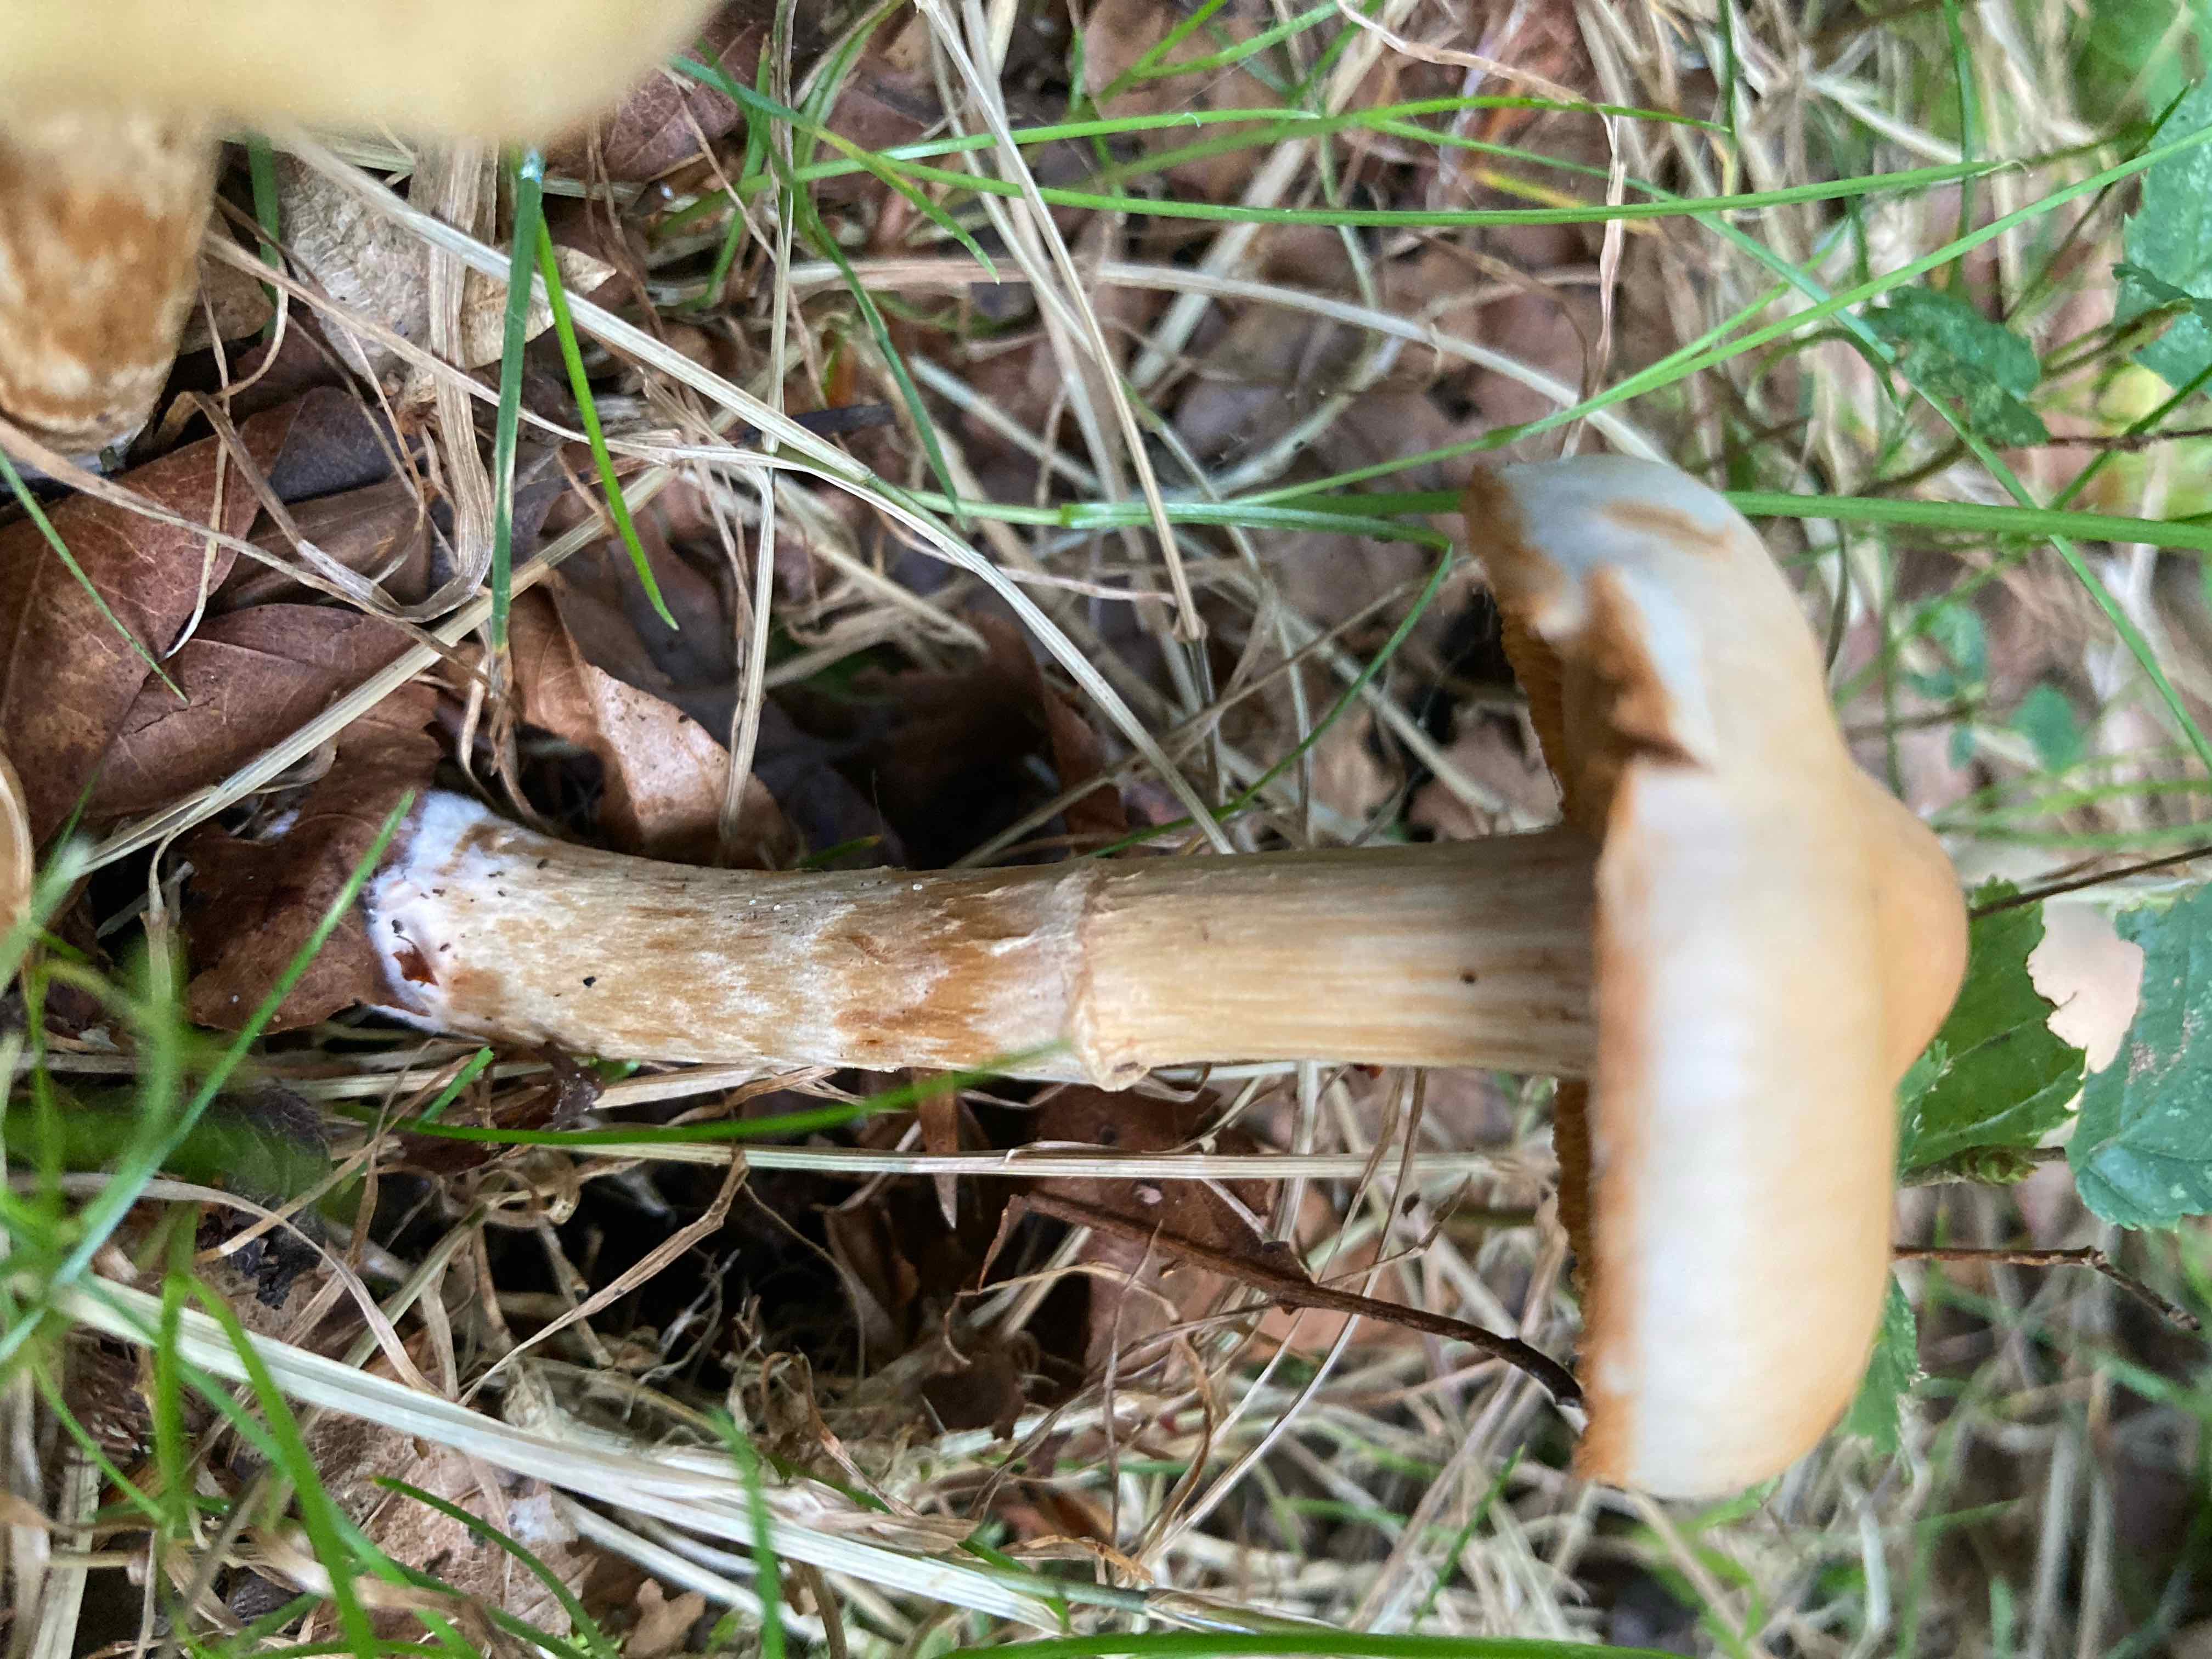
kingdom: Fungi
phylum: Basidiomycota
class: Agaricomycetes
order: Agaricales
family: Cortinariaceae
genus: Cortinarius
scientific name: Cortinarius
